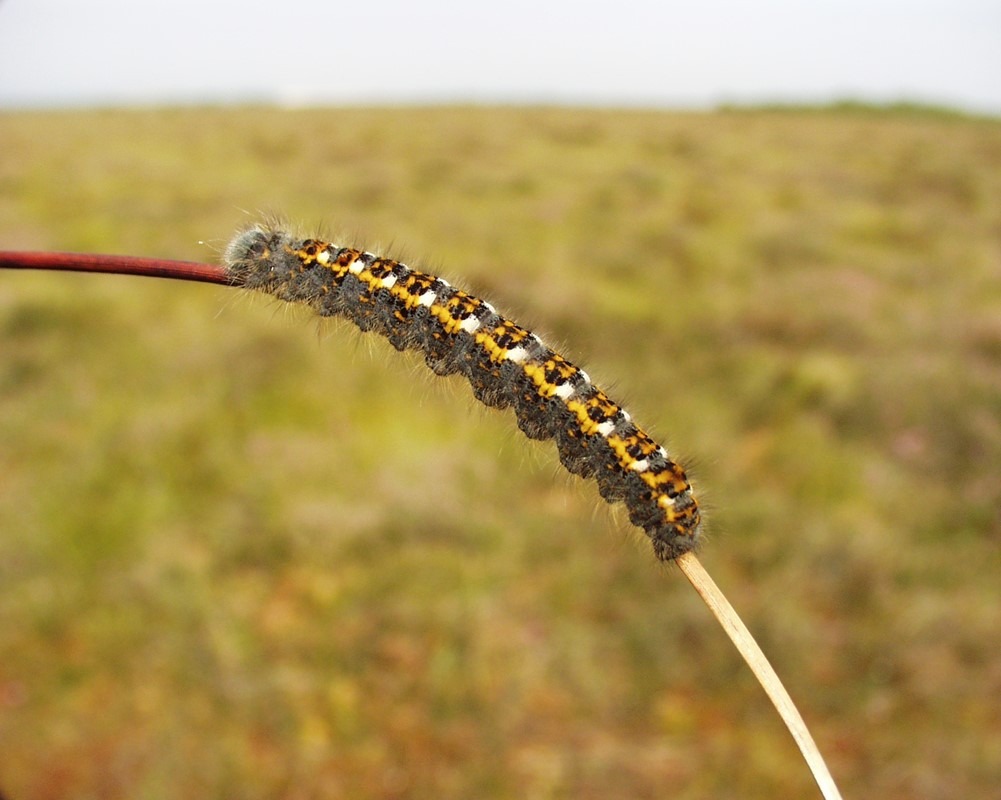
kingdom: Animalia
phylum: Arthropoda
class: Insecta
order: Lepidoptera
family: Lasiocampidae
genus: Phyllodesma
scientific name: Phyllodesma ilicifolia
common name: Hede-takspinder
